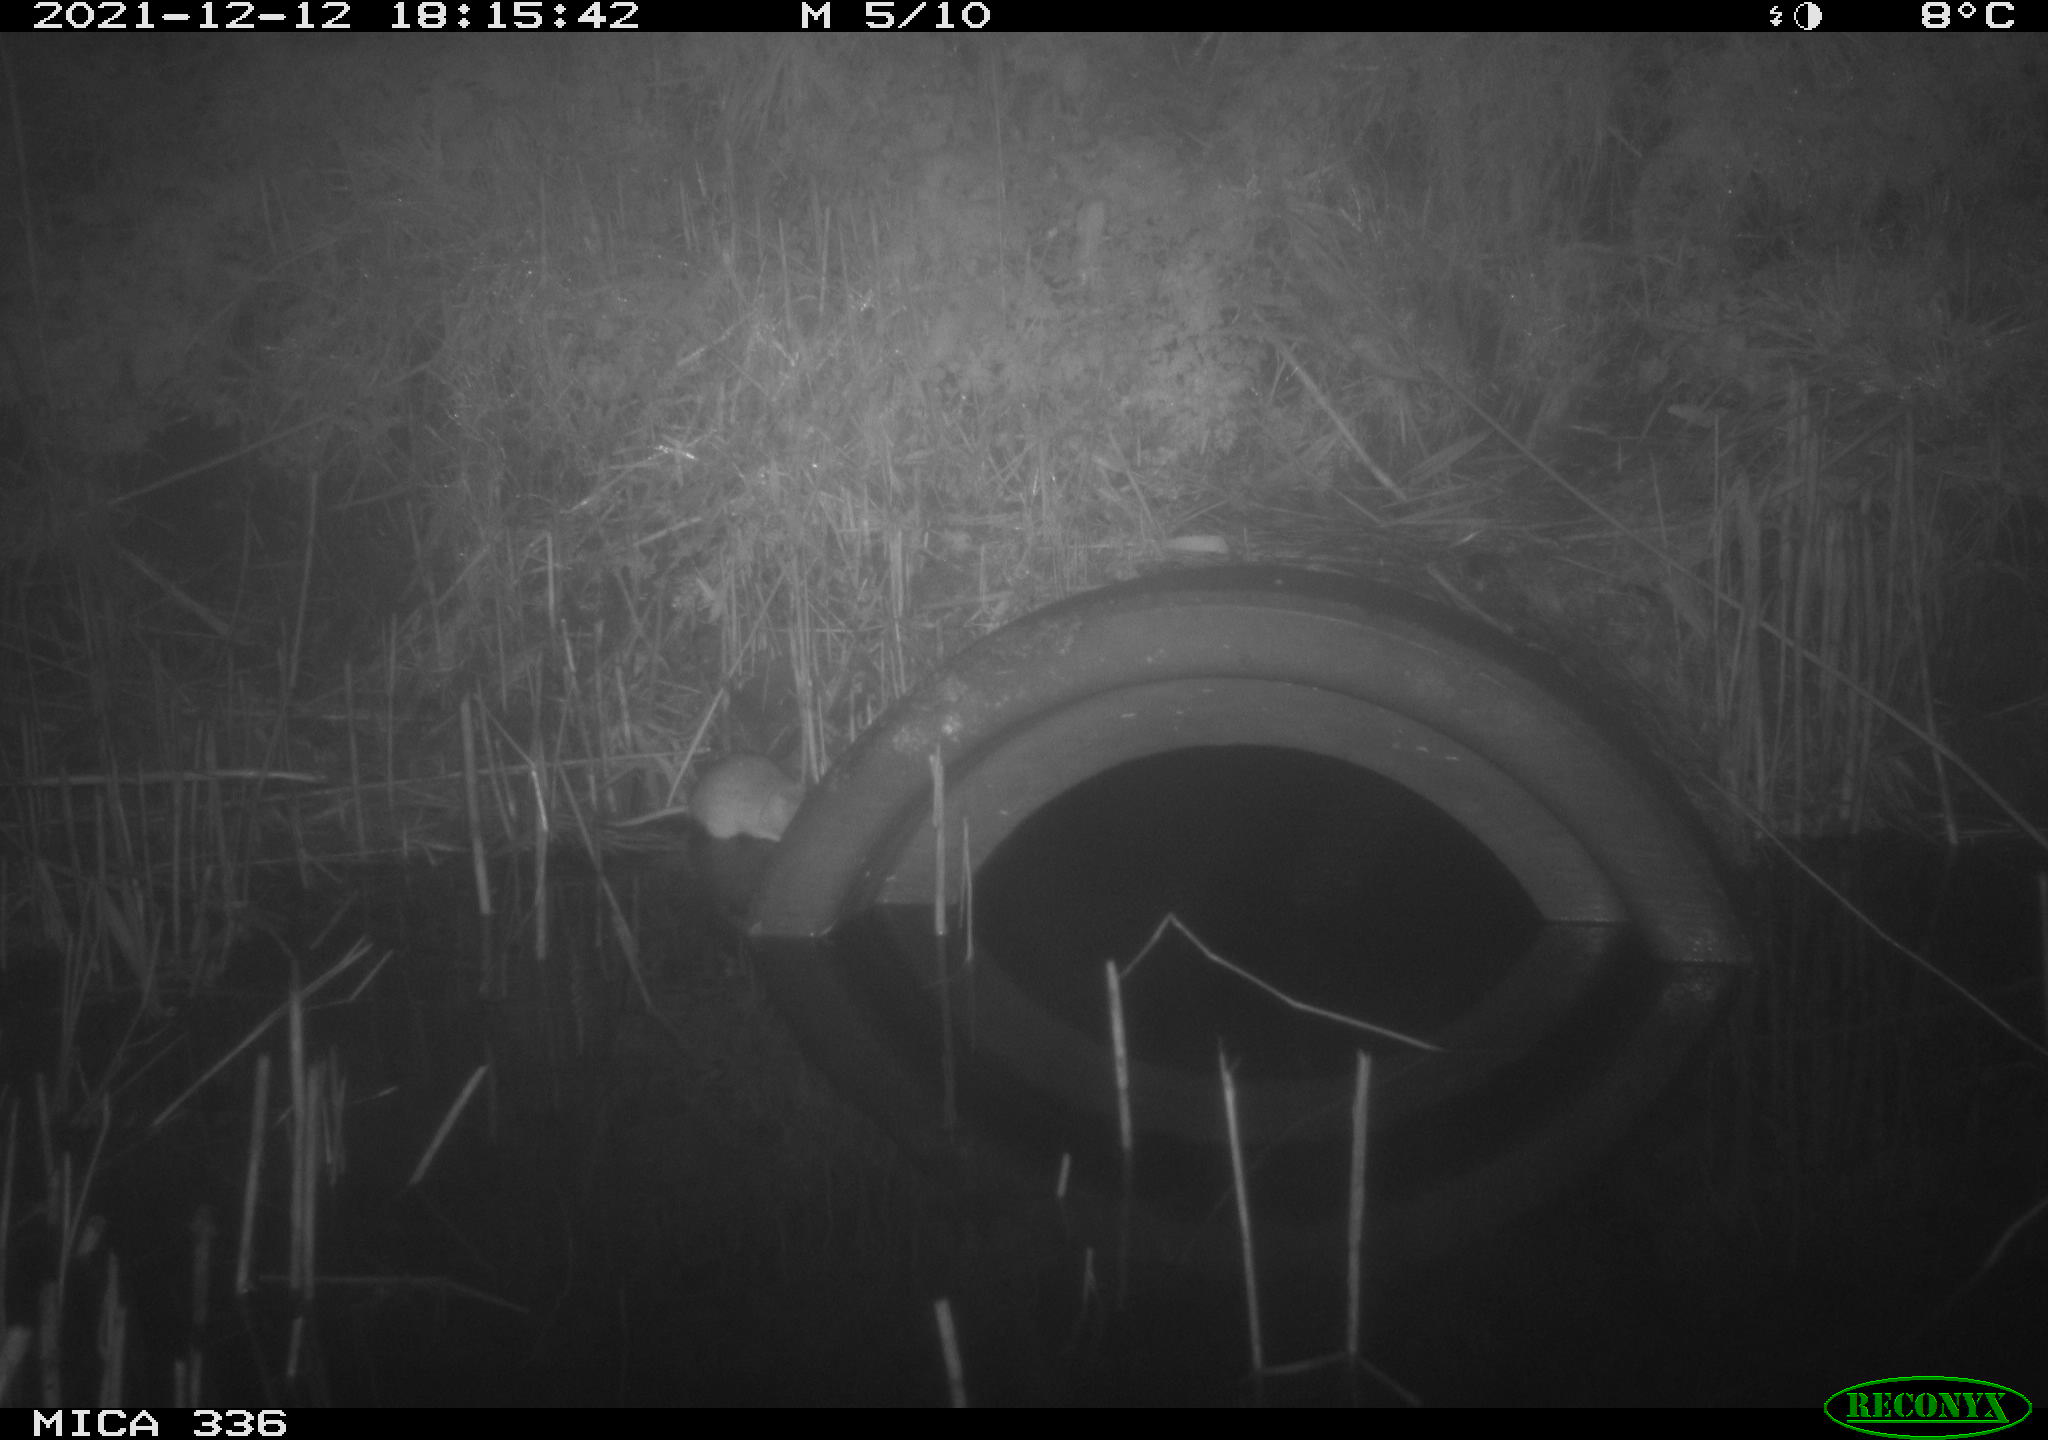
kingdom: Animalia
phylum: Chordata
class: Mammalia
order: Rodentia
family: Muridae
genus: Rattus
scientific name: Rattus norvegicus
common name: Brown rat
